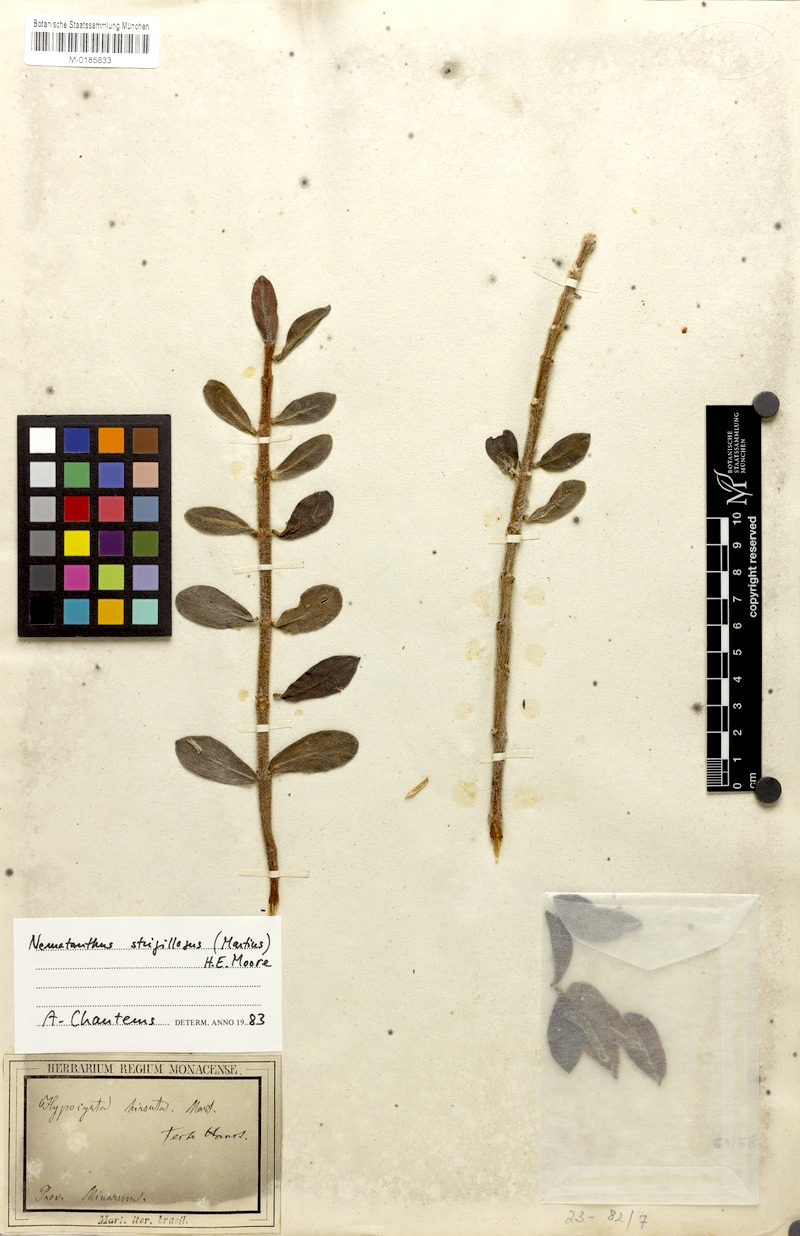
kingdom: Plantae
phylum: Tracheophyta
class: Magnoliopsida
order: Lamiales
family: Gesneriaceae
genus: Nematanthus
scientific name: Nematanthus strigillosus
